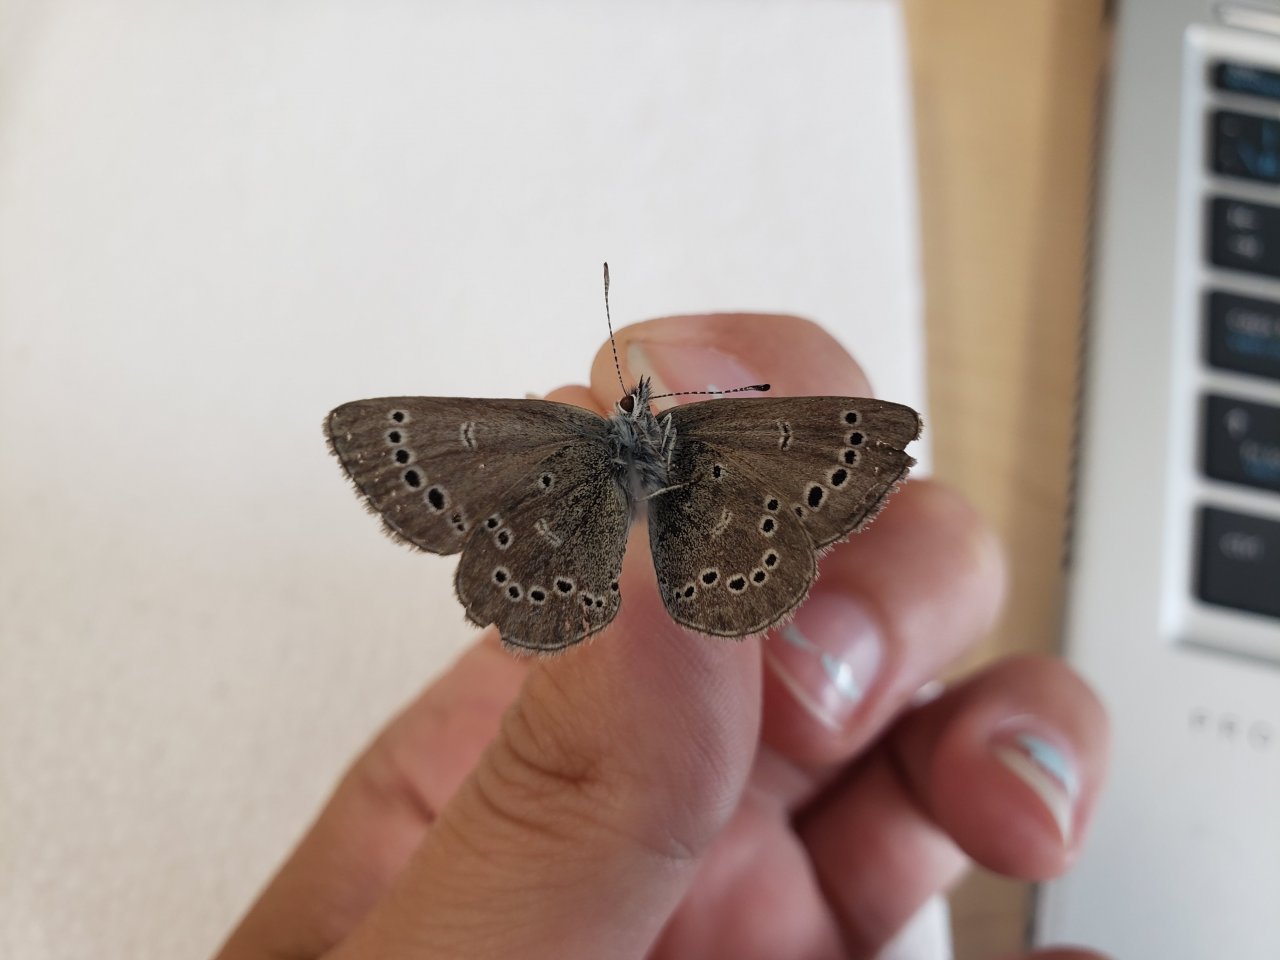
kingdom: Animalia
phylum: Arthropoda
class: Insecta
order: Lepidoptera
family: Lycaenidae
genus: Glaucopsyche
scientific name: Glaucopsyche lygdamus
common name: Silvery Blue
